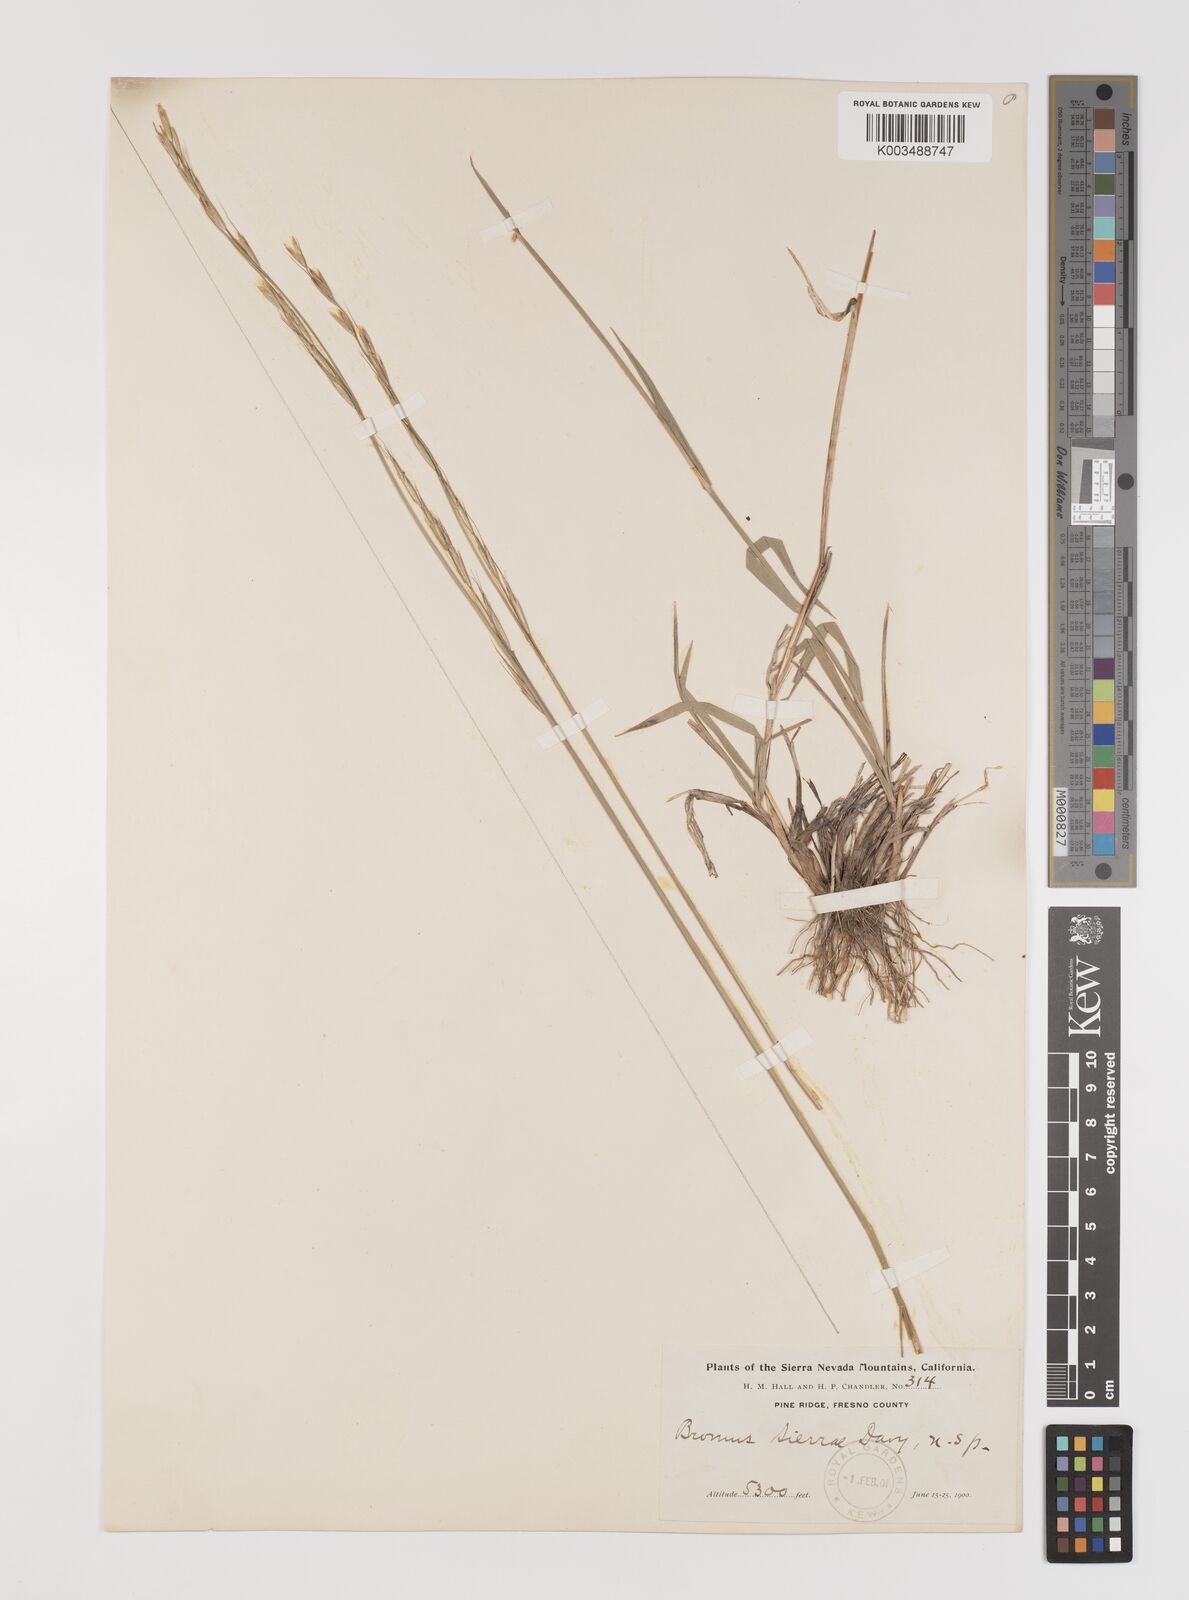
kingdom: Plantae
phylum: Tracheophyta
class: Liliopsida
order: Poales
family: Poaceae
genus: Bromus
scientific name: Bromus
